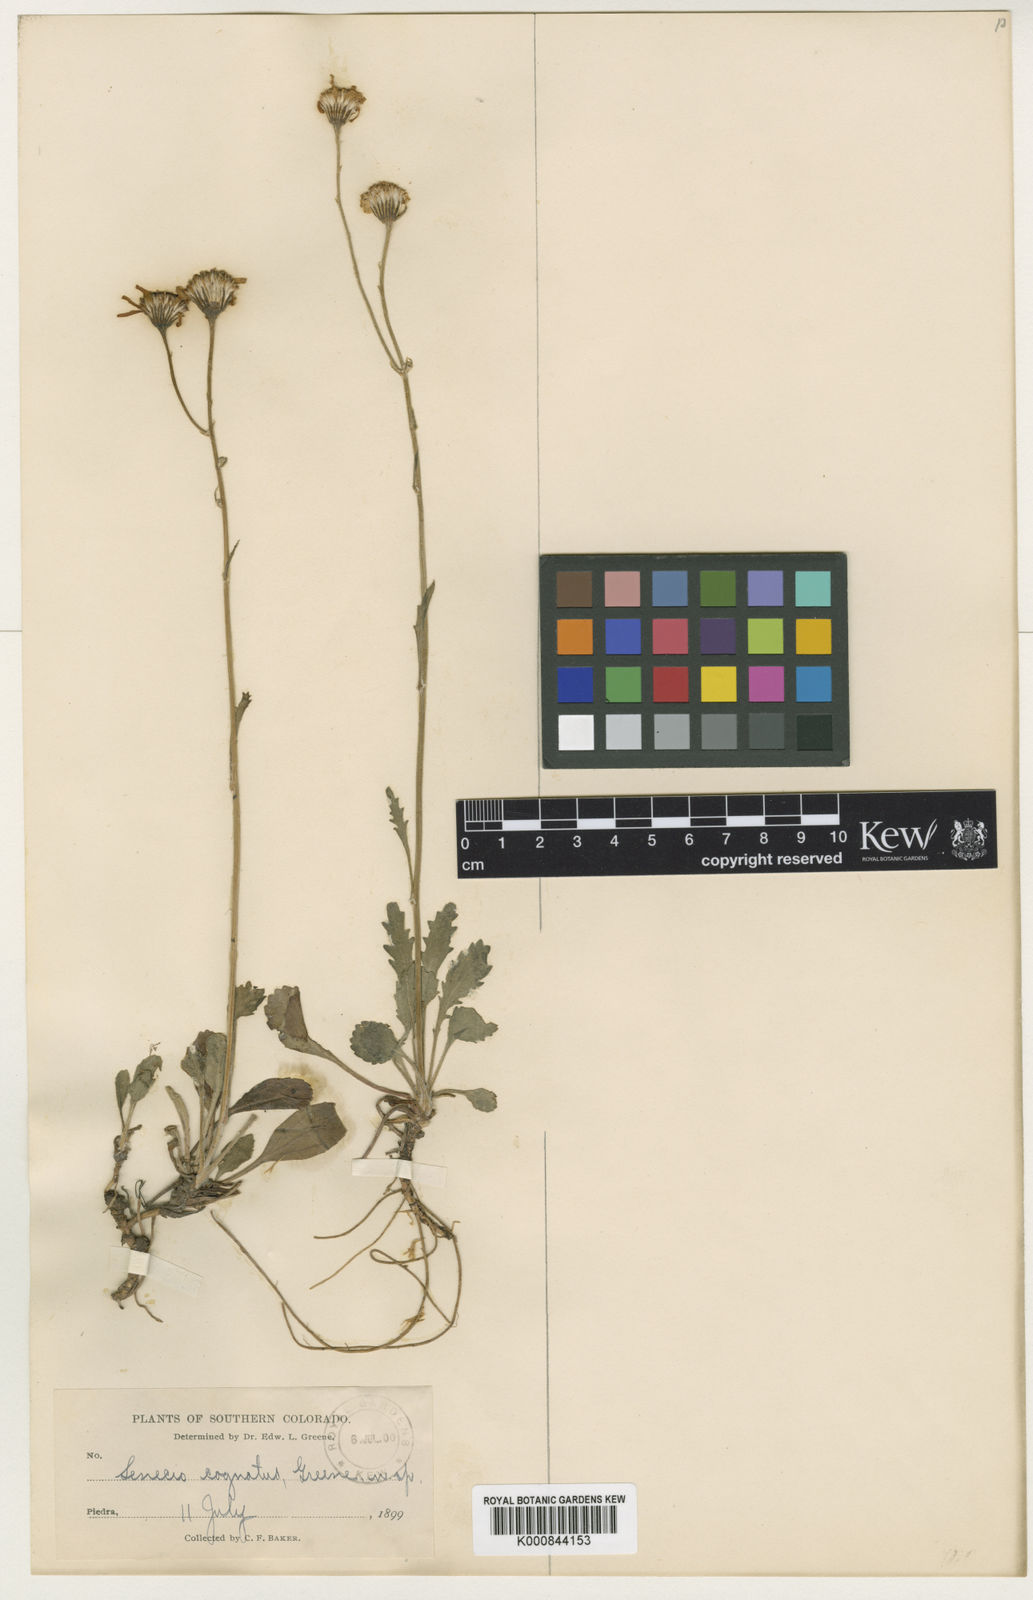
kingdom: Plantae
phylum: Tracheophyta
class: Magnoliopsida
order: Asterales
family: Asteraceae
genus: Packera
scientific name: Packera
